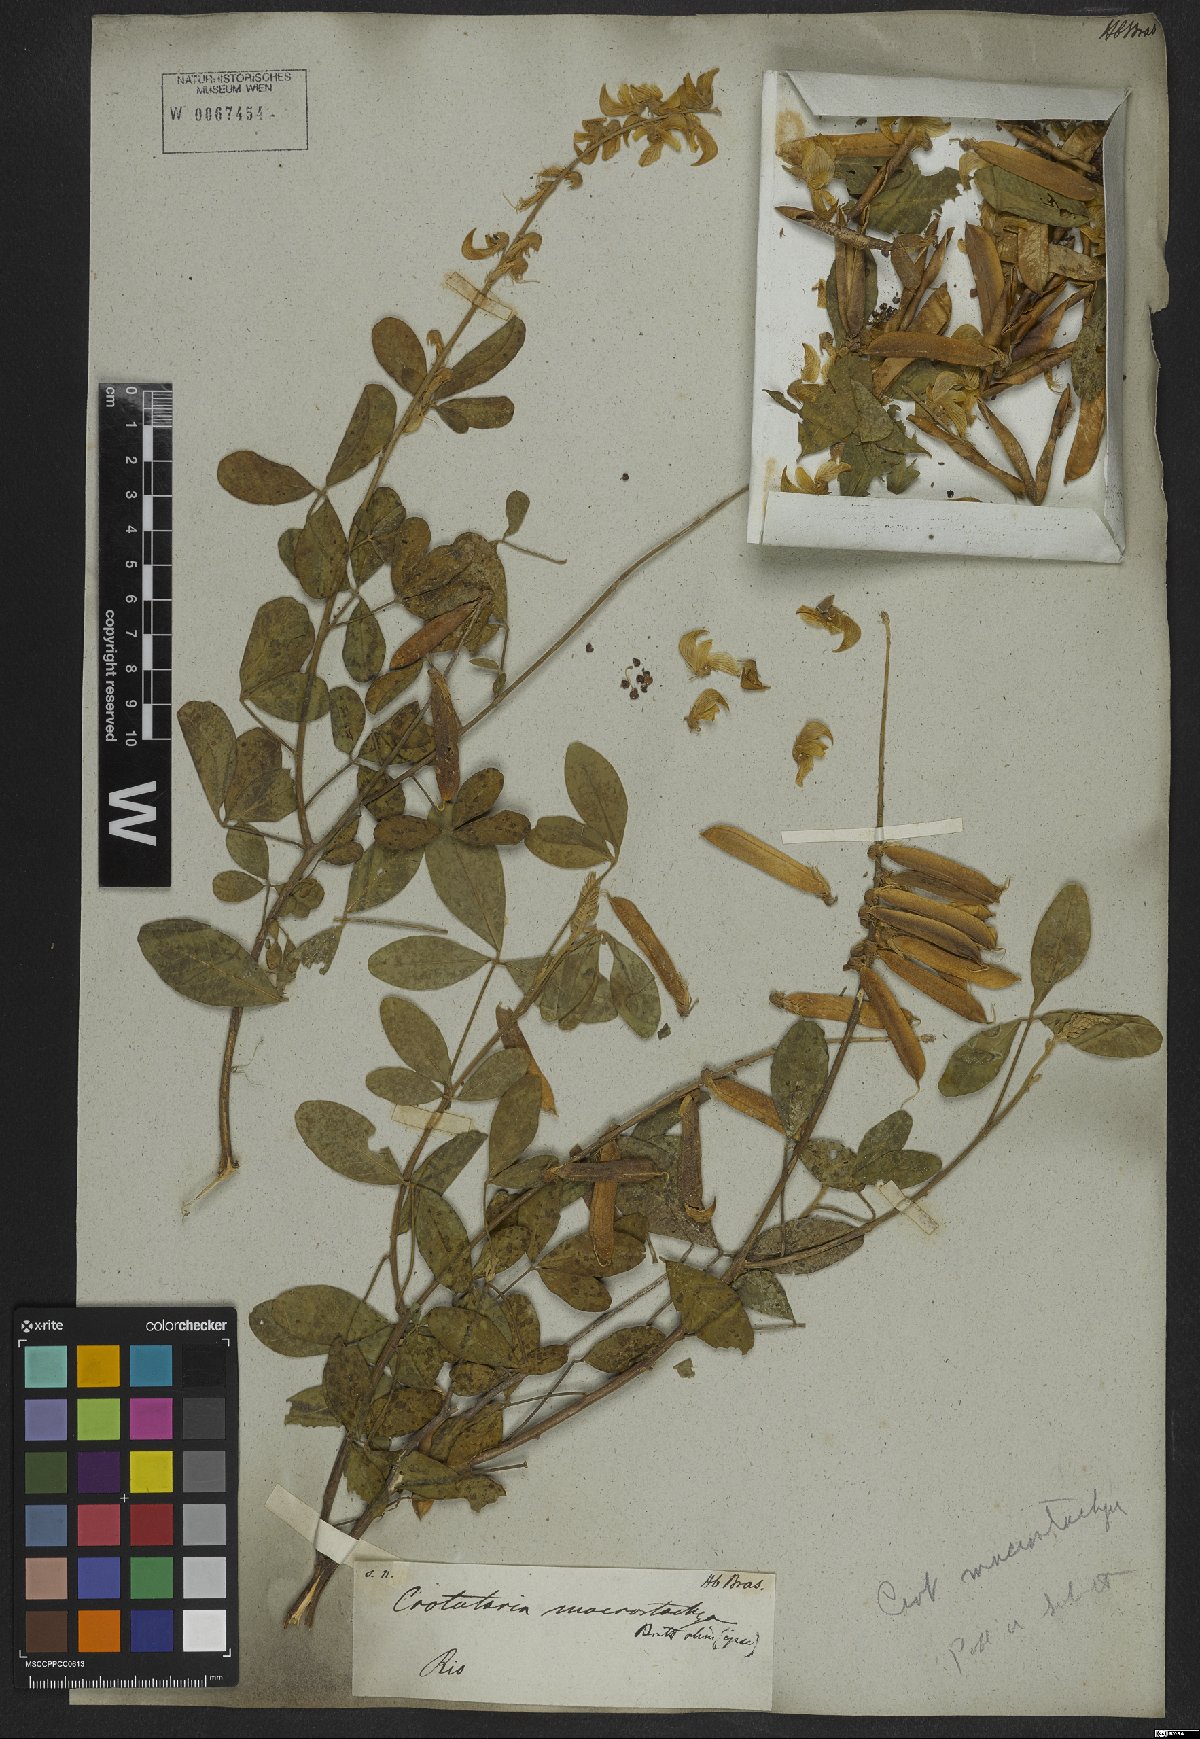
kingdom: Plantae
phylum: Tracheophyta
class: Magnoliopsida
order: Fabales
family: Fabaceae
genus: Crotalaria
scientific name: Crotalaria globifera
